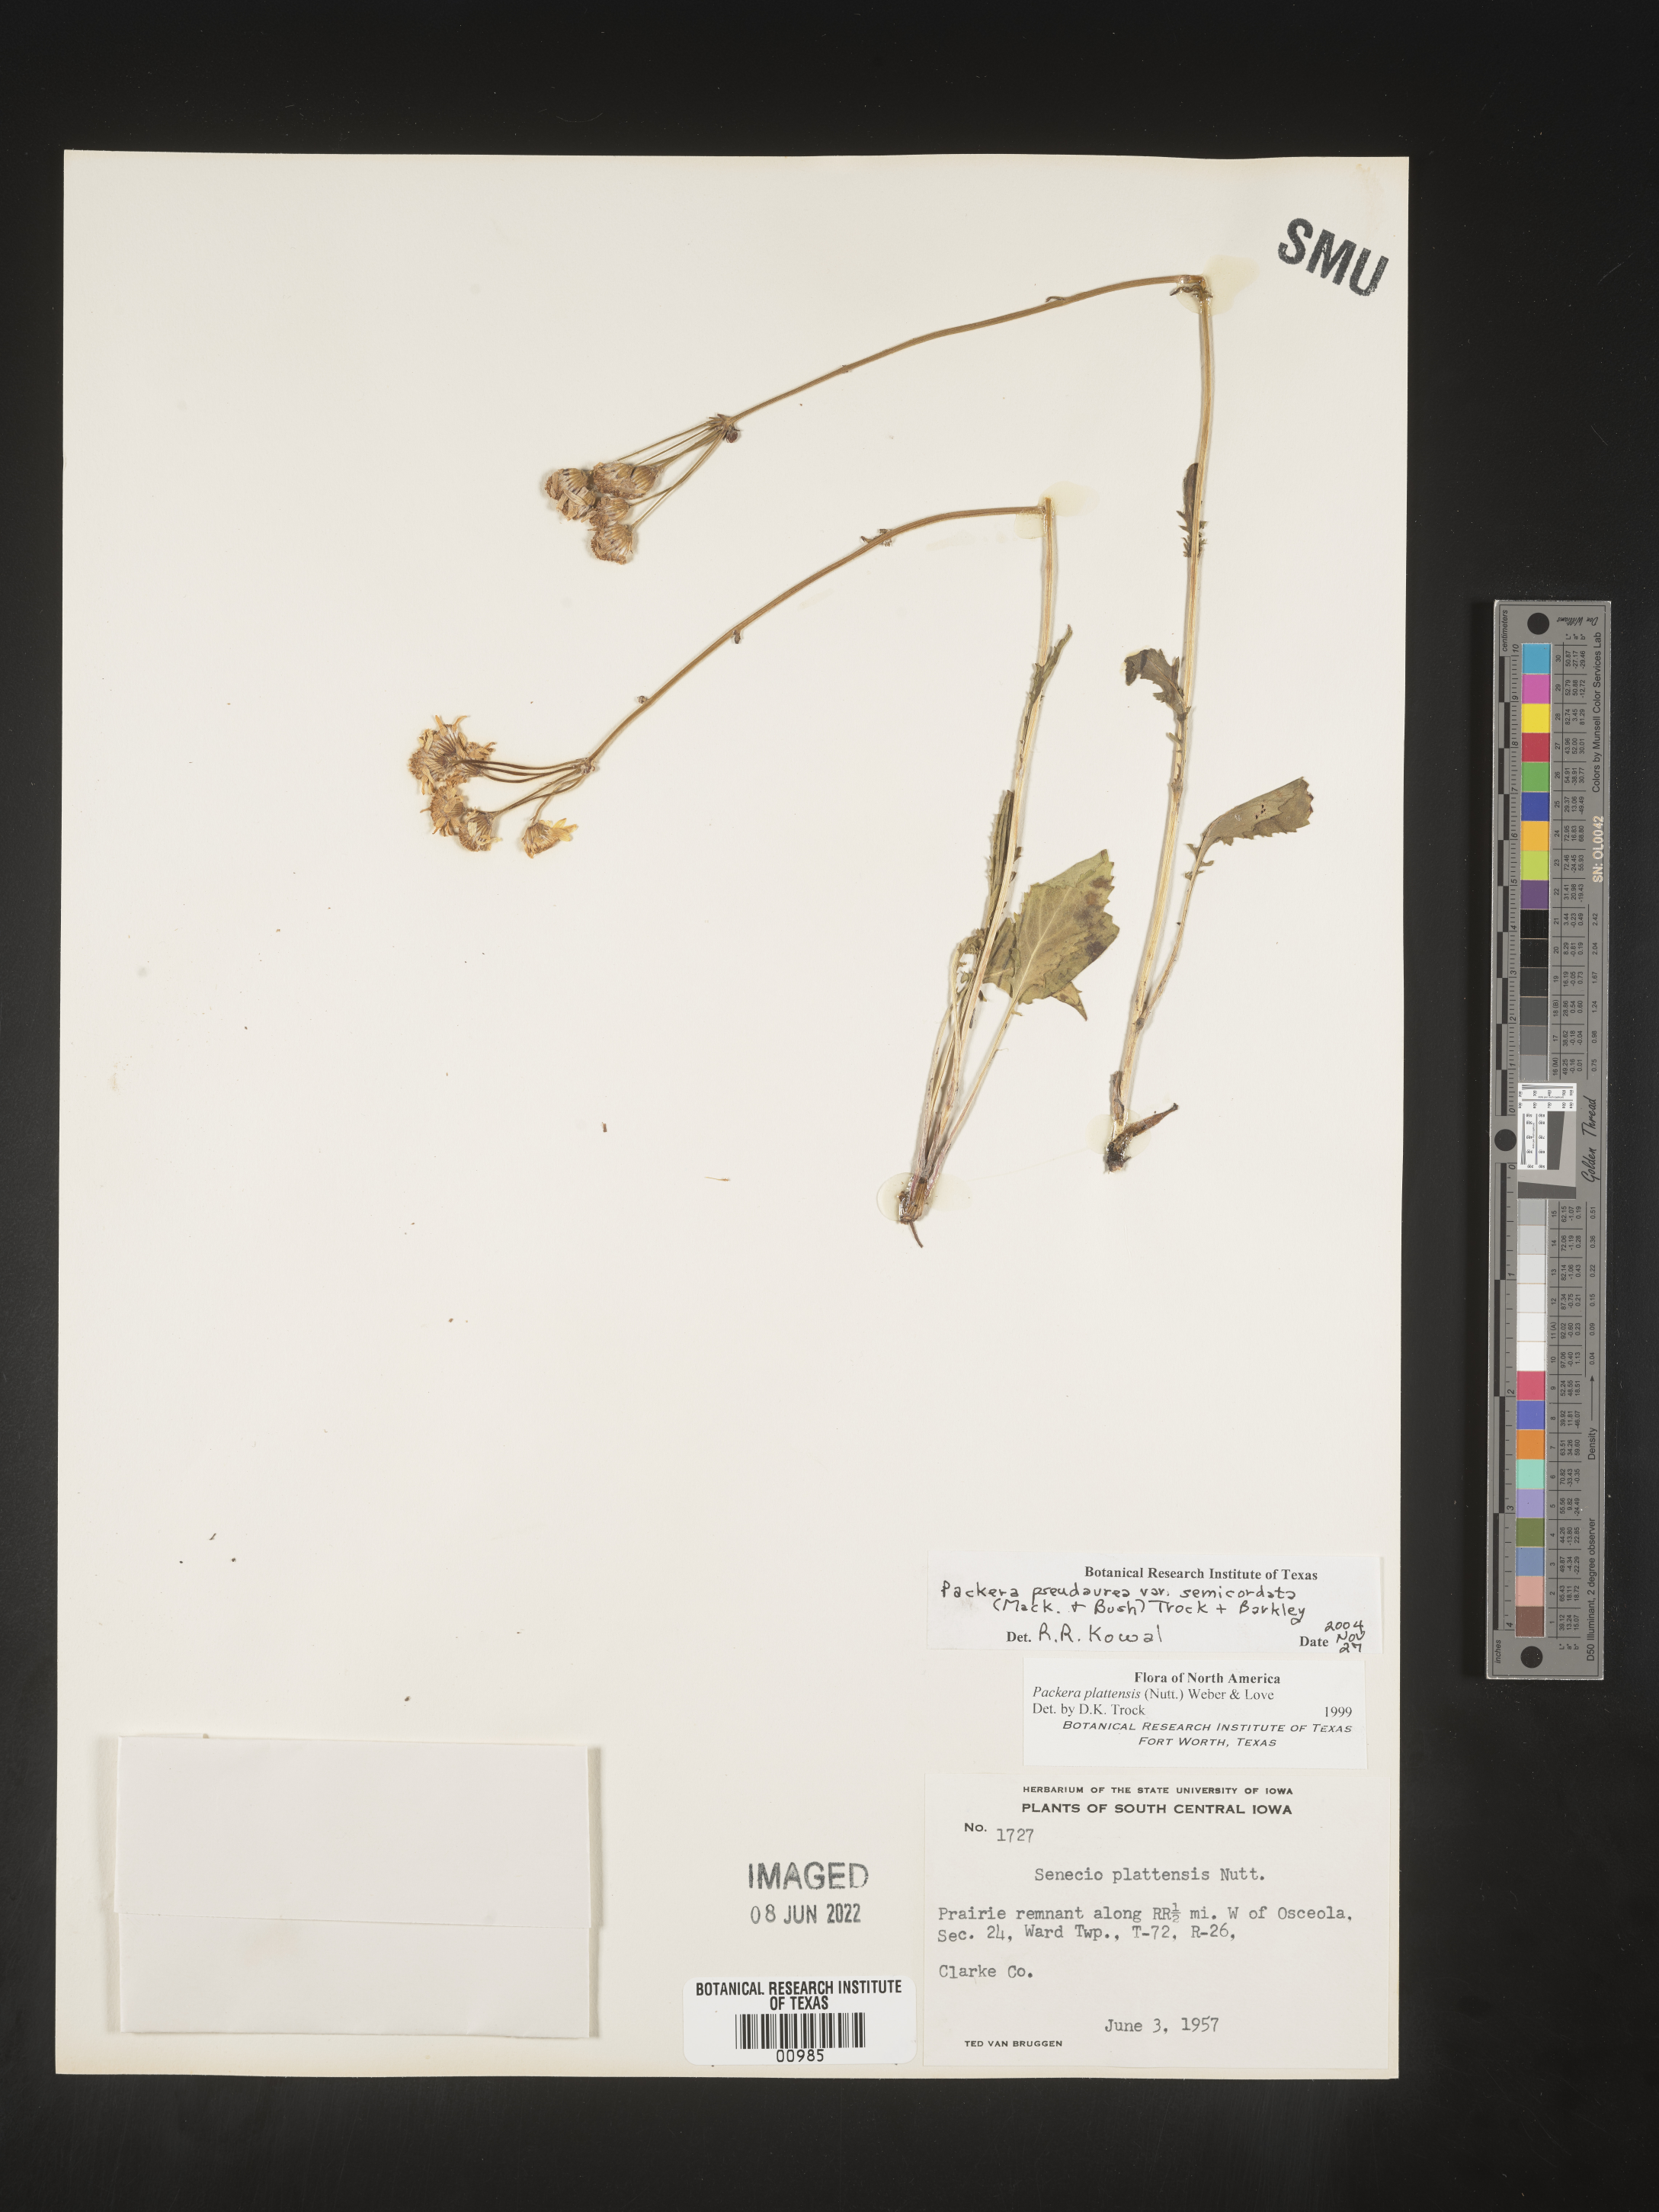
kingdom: Plantae
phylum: Tracheophyta
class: Magnoliopsida
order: Asterales
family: Asteraceae
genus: Packera
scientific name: Packera pseudaurea
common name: False-gold groundsel
